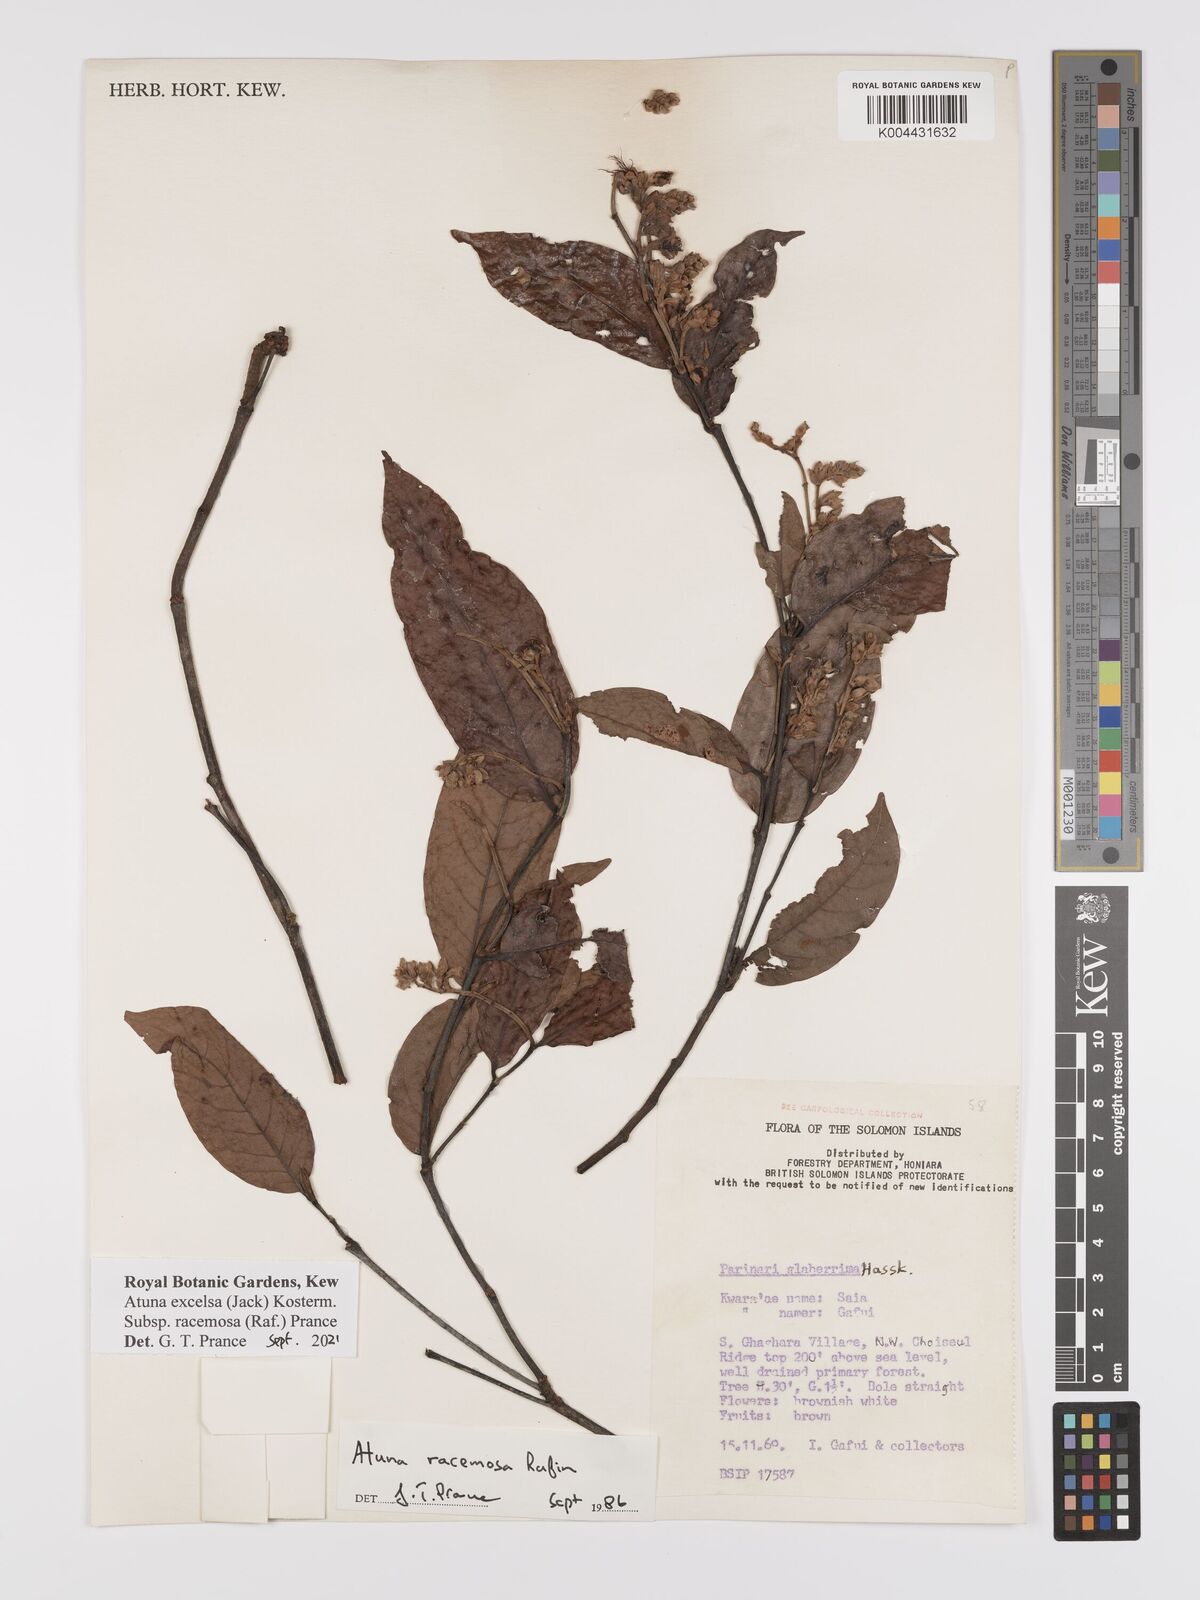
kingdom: Plantae
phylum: Tracheophyta
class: Magnoliopsida
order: Malpighiales
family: Chrysobalanaceae
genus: Atuna
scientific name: Atuna excelsa
